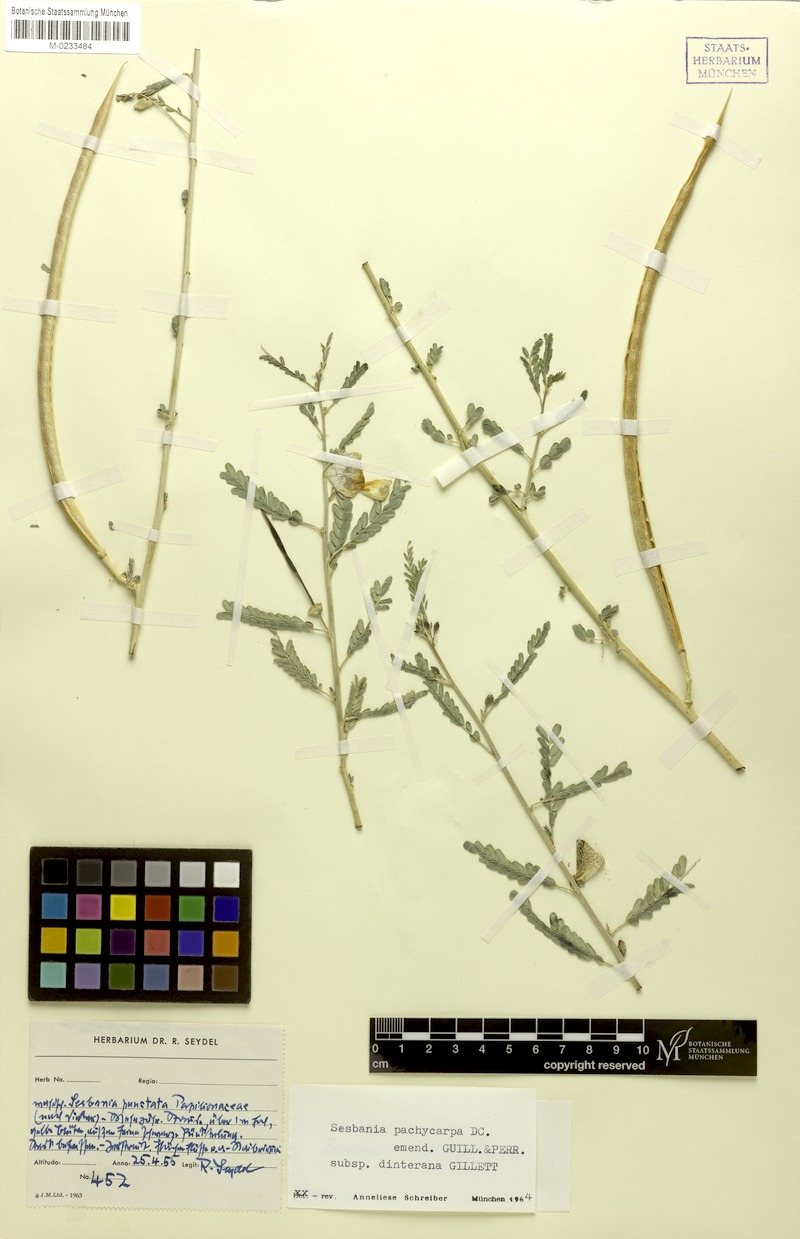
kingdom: Plantae
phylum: Tracheophyta
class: Magnoliopsida
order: Fabales
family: Fabaceae
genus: Sesbania
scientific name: Sesbania pachycarpa
